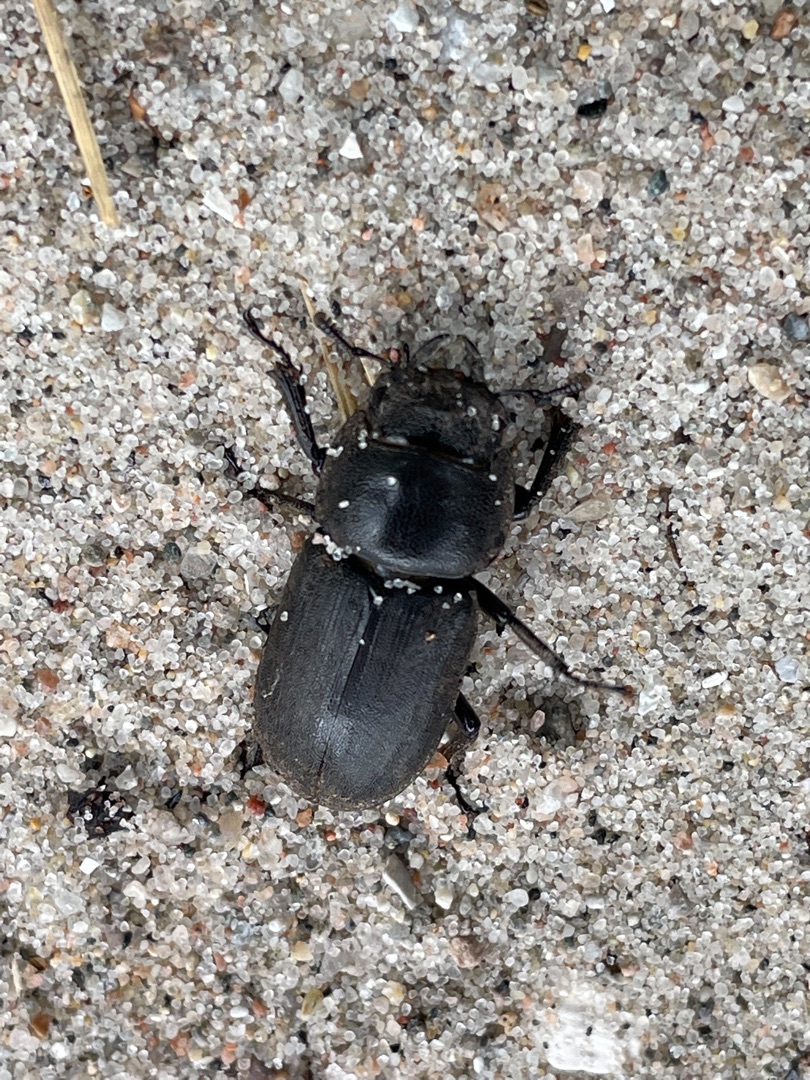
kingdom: Animalia
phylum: Arthropoda
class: Insecta
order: Coleoptera
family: Lucanidae
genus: Dorcus
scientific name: Dorcus parallelipipedus
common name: Bøghjort
